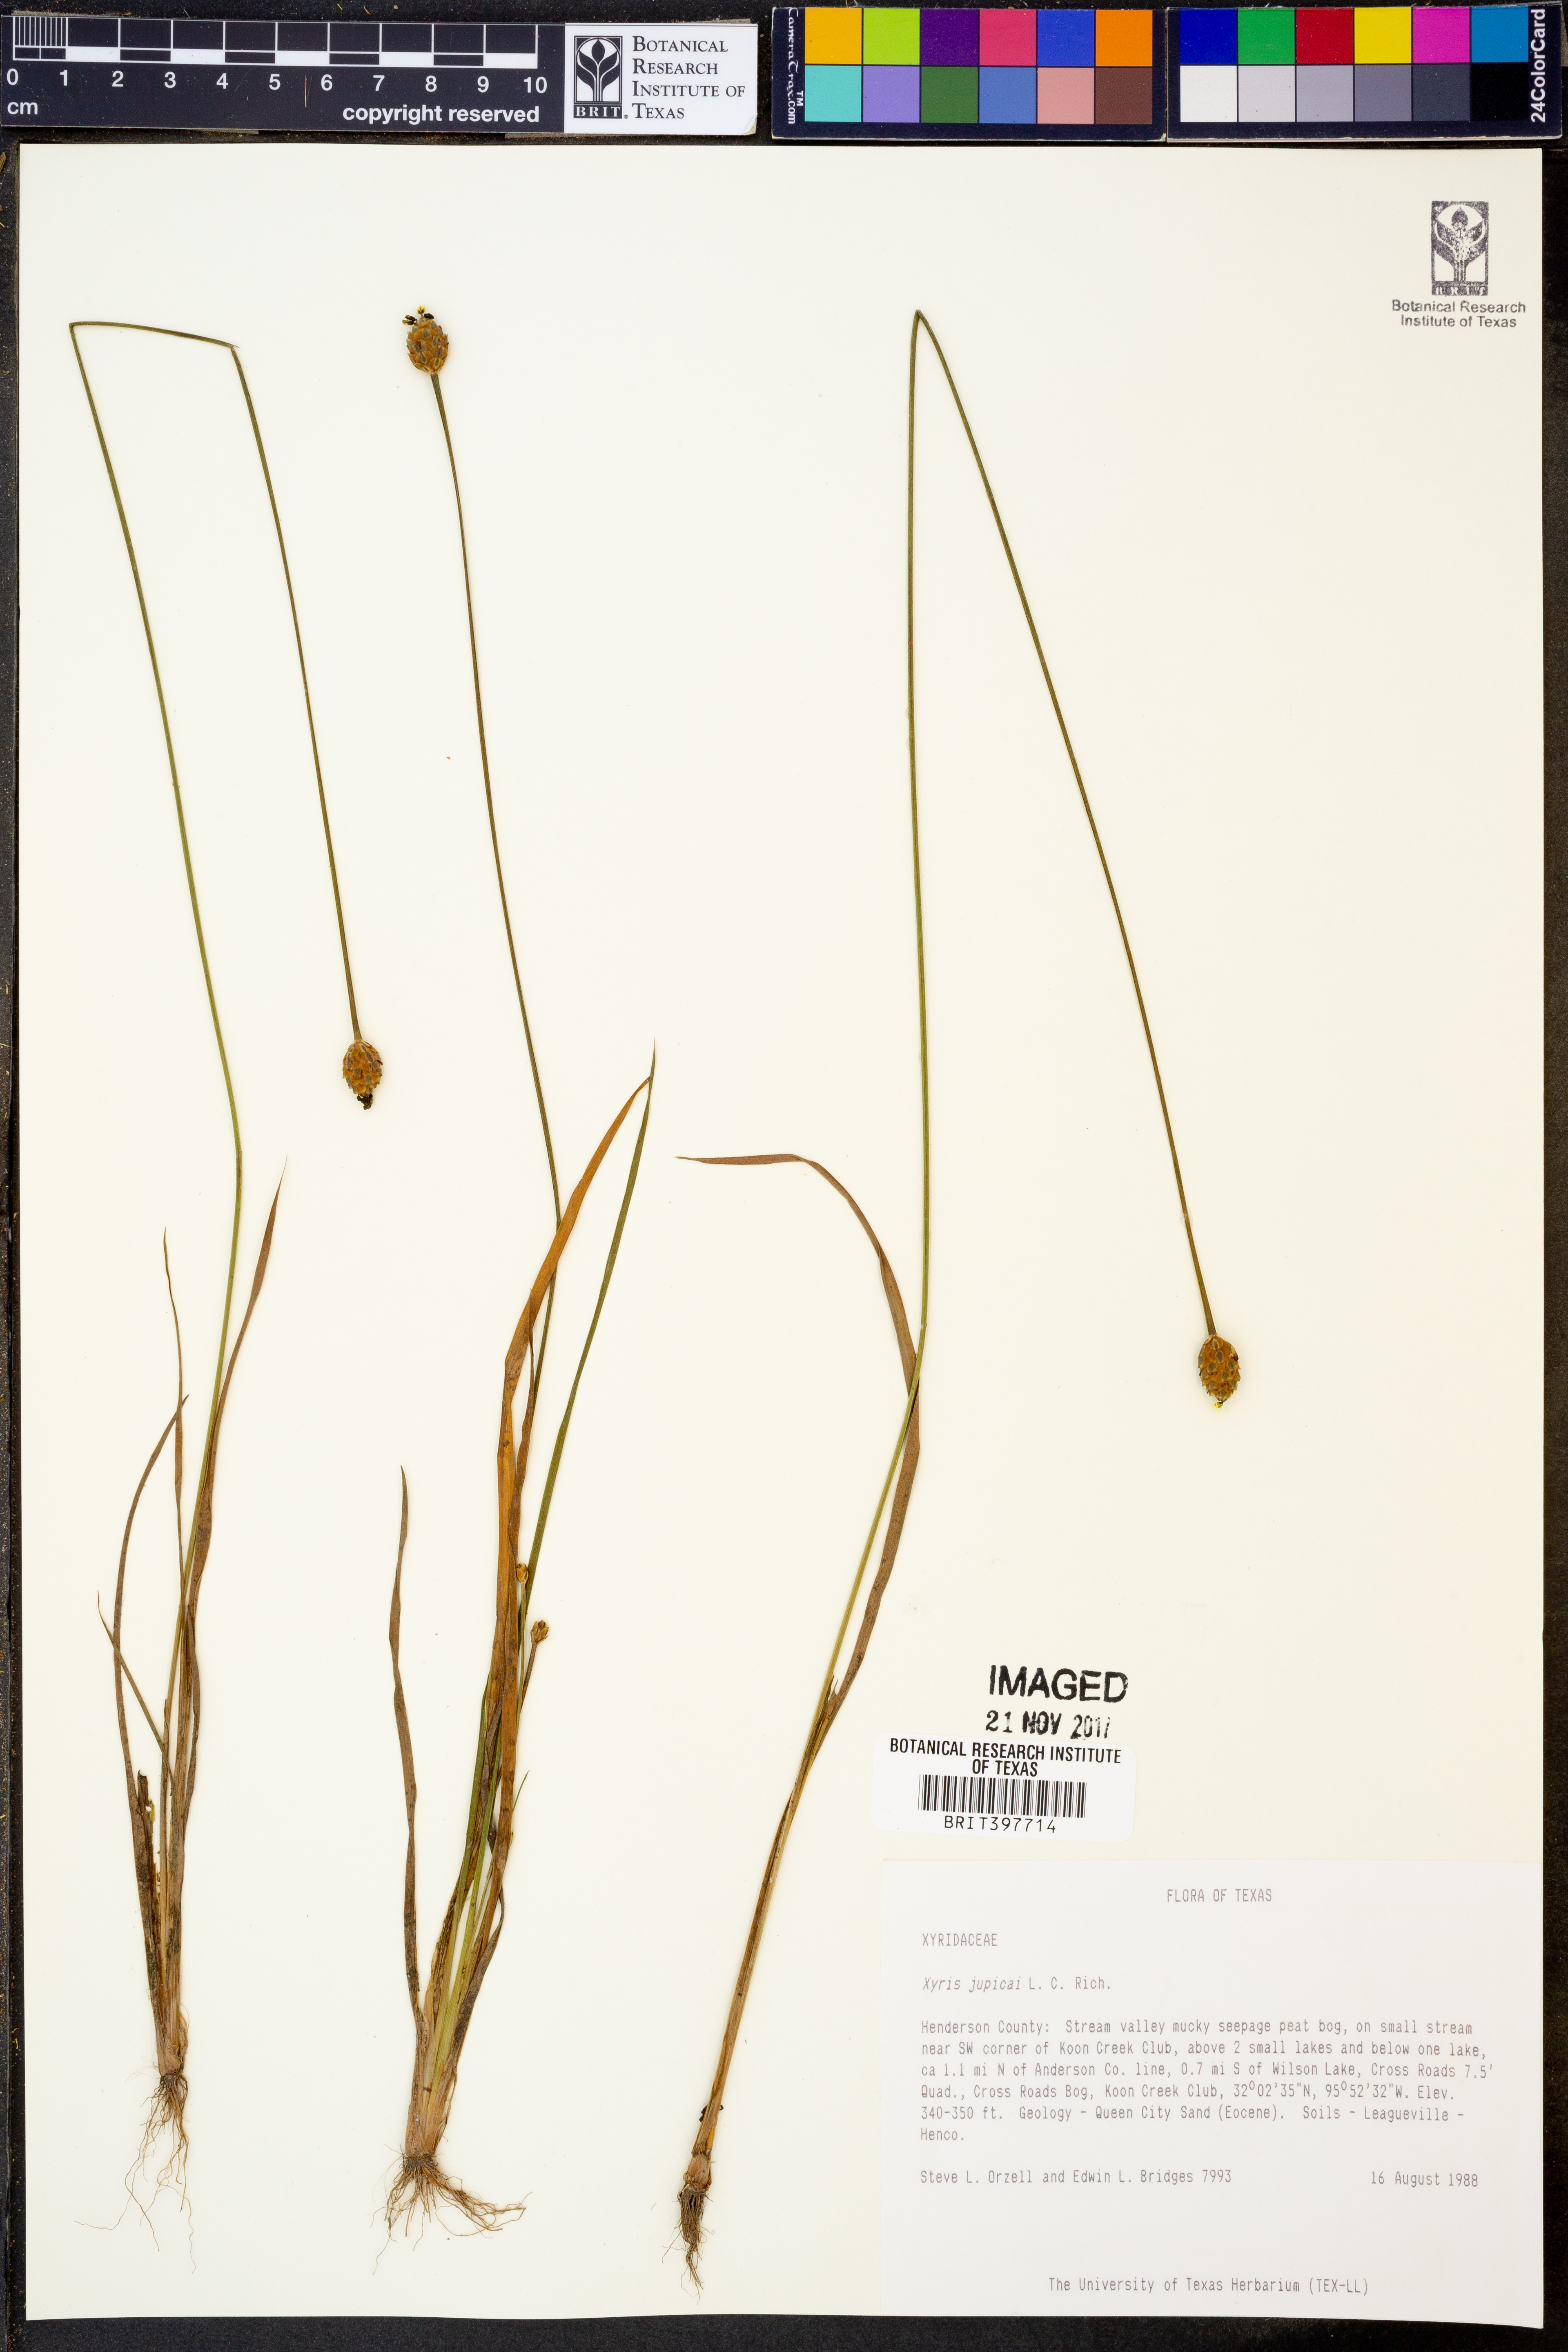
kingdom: Plantae
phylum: Tracheophyta
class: Liliopsida
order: Poales
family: Xyridaceae
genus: Xyris
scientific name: Xyris jupicai
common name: Richard's yelloweyed grass
